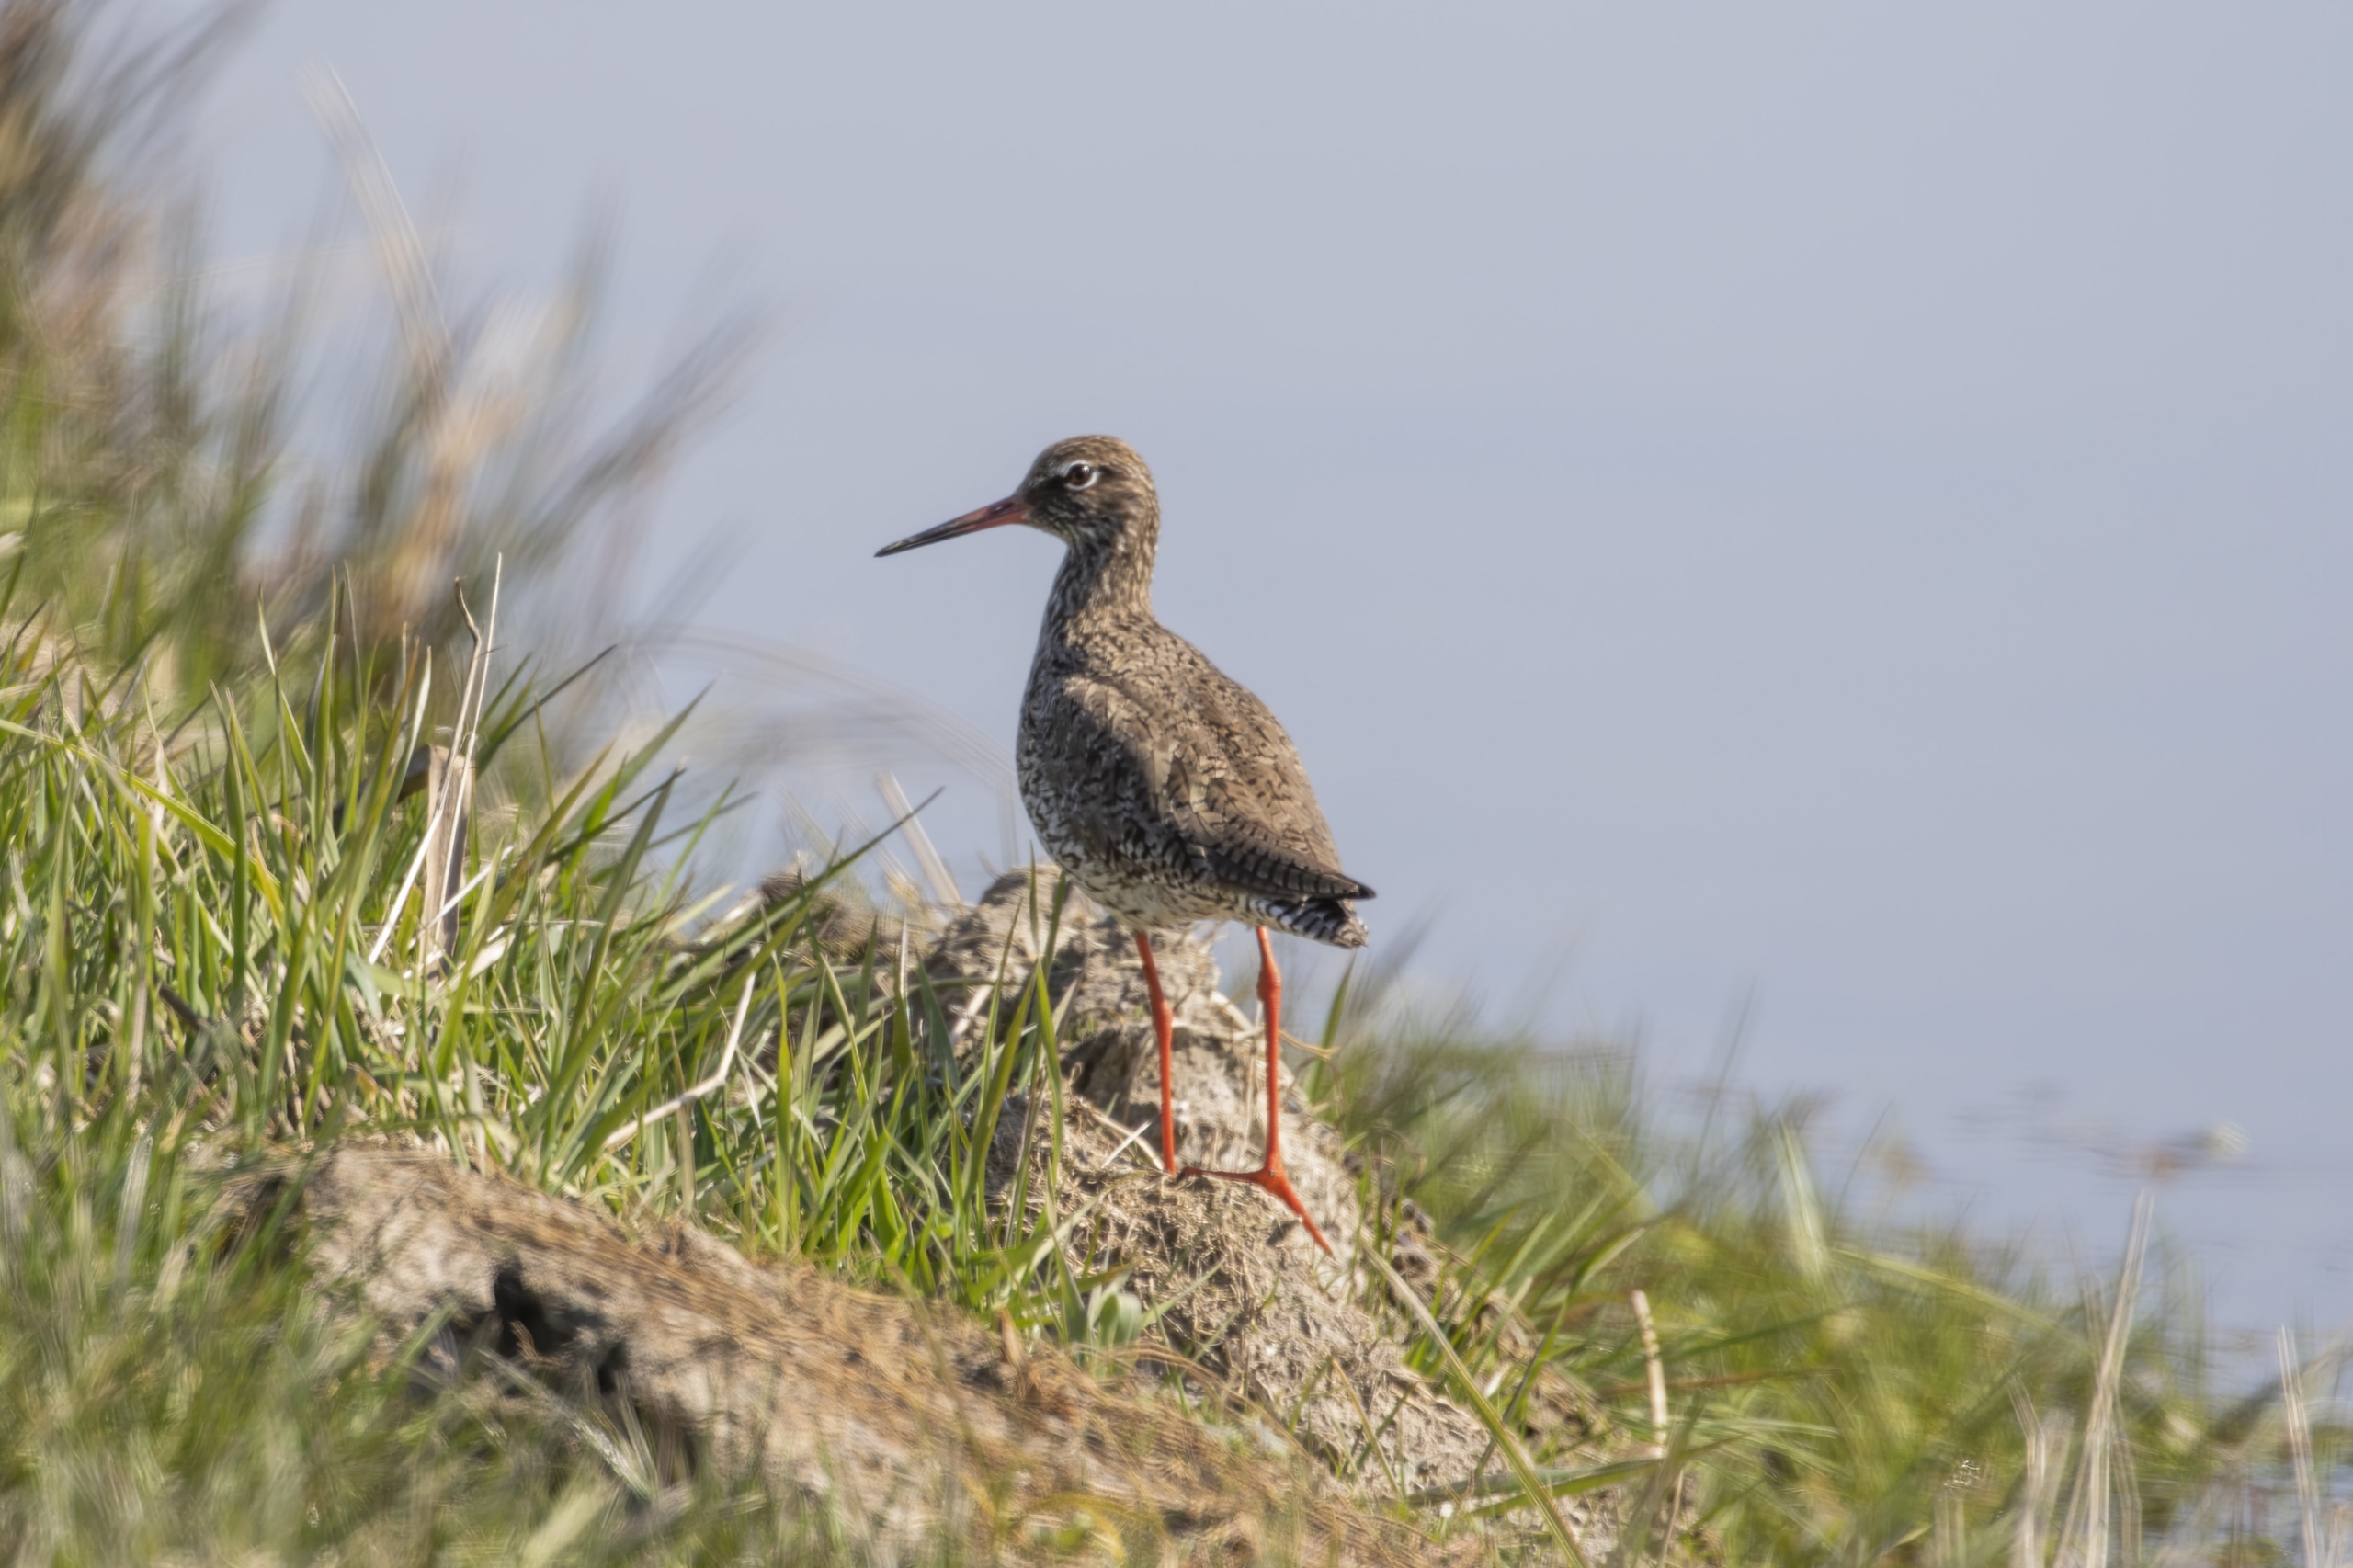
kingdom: Animalia
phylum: Chordata
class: Aves
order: Charadriiformes
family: Scolopacidae
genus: Tringa
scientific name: Tringa totanus
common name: Rødben
